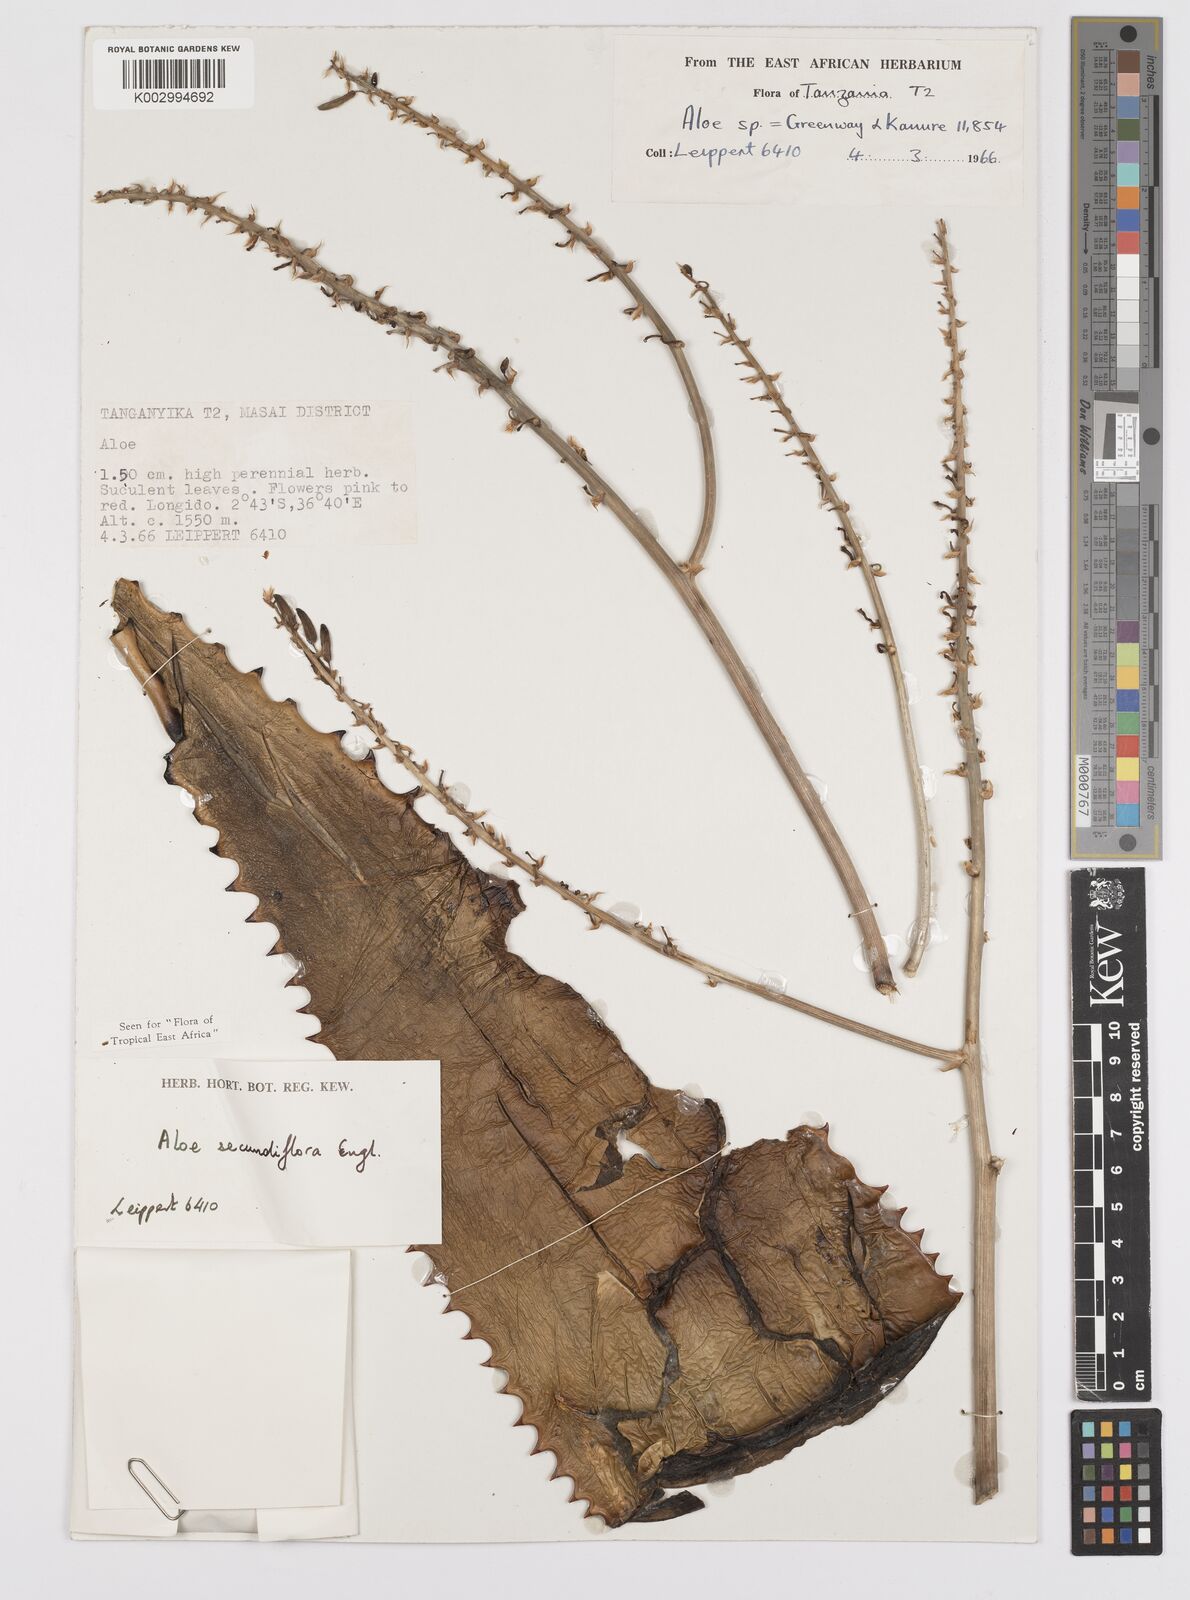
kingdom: Plantae
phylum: Tracheophyta
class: Liliopsida
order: Asparagales
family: Asphodelaceae
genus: Aloe
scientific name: Aloe secundiflora
